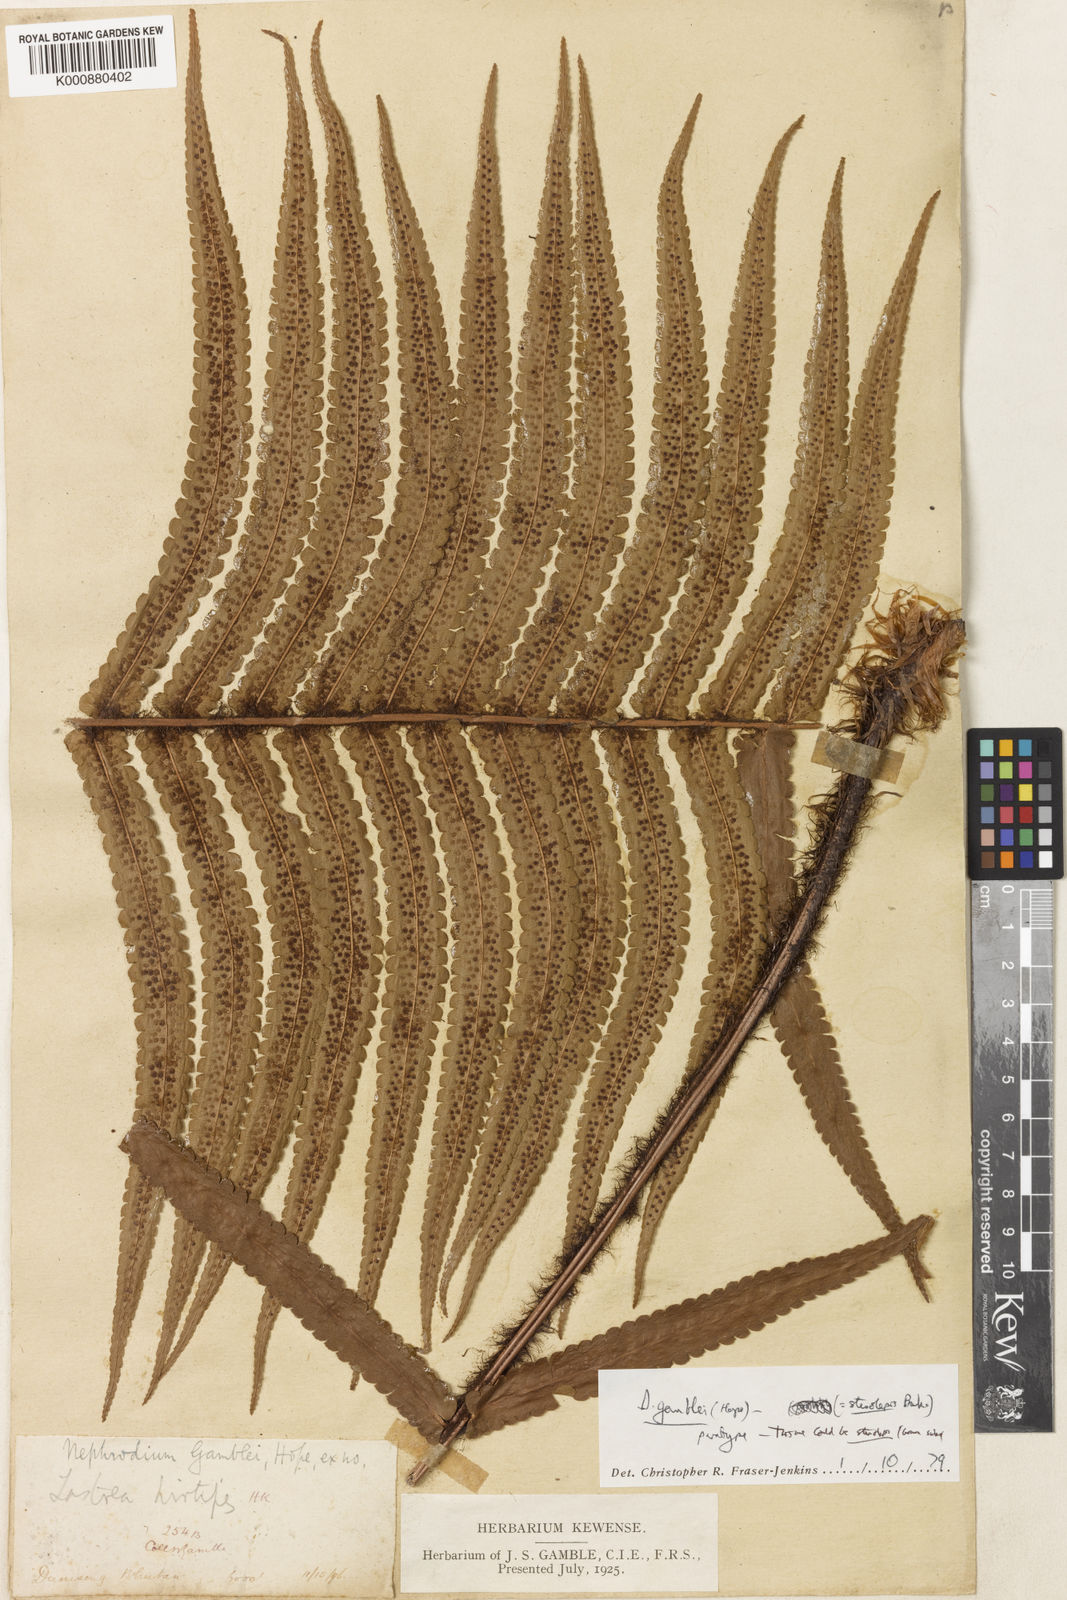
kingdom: Plantae
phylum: Tracheophyta
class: Polypodiopsida
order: Polypodiales
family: Dryopteridaceae
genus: Dryopteris
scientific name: Dryopteris stenolepis
